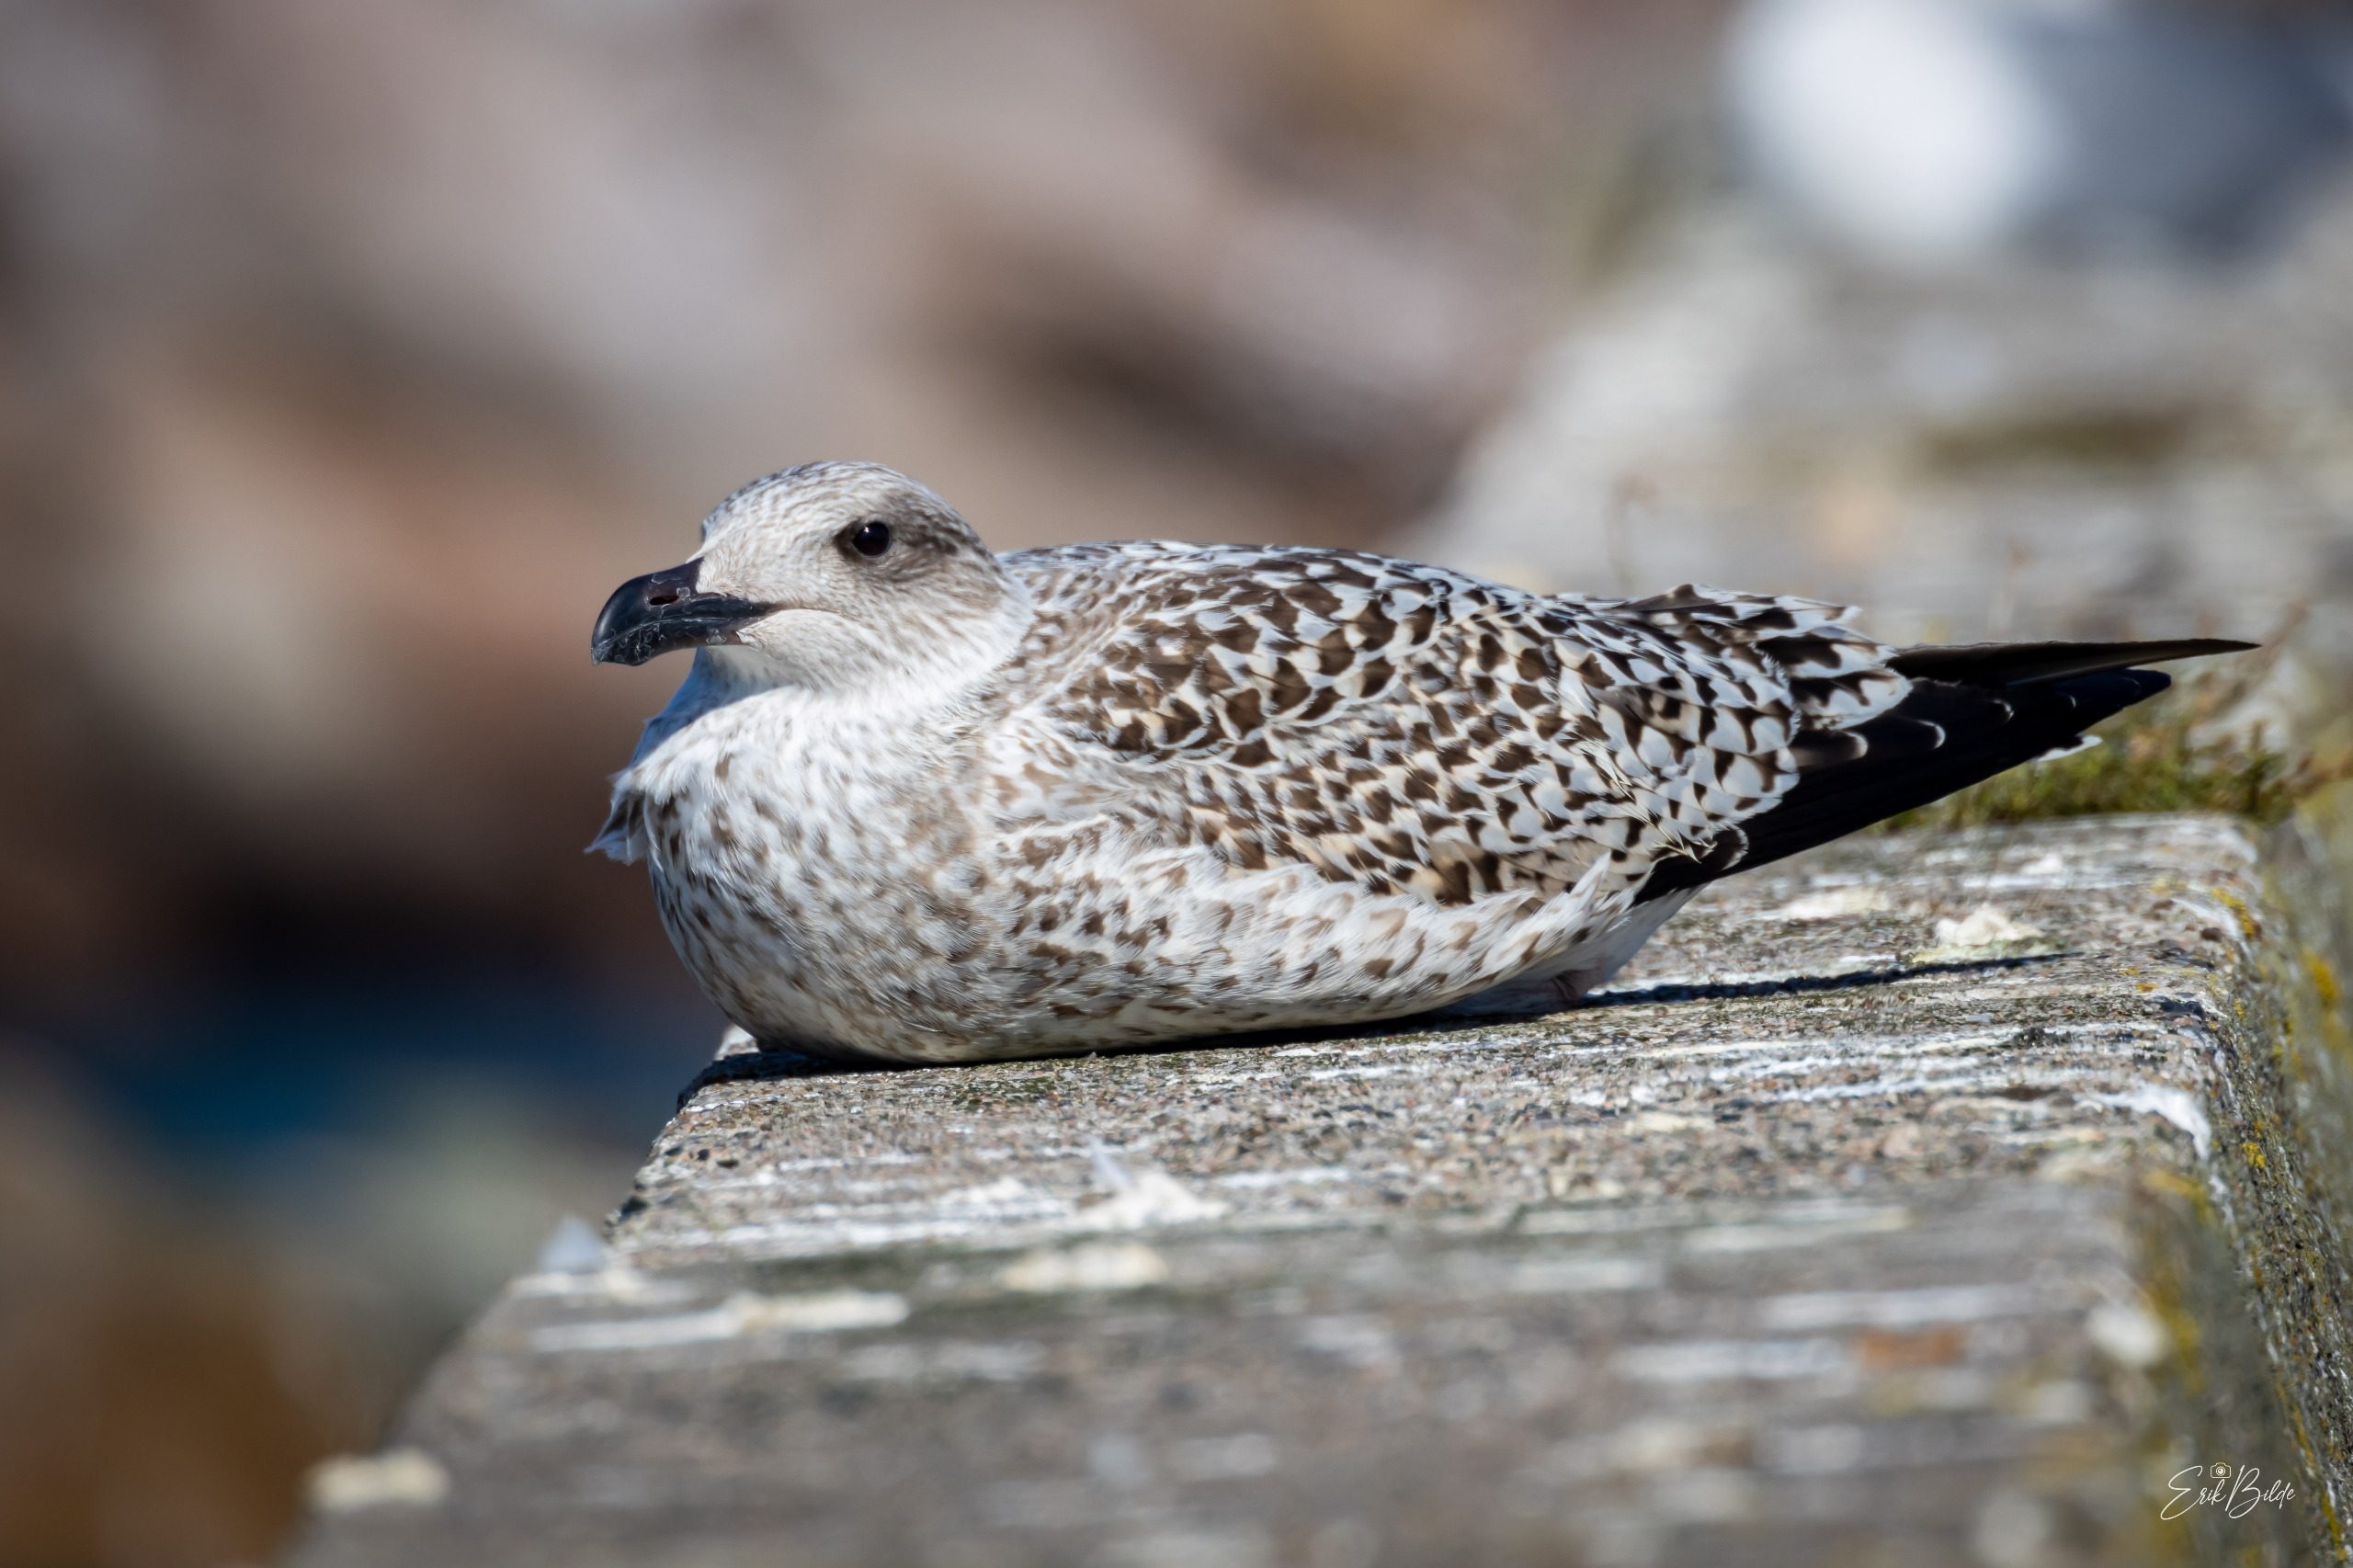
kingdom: Animalia
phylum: Chordata
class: Aves
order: Charadriiformes
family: Laridae
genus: Larus
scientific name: Larus marinus
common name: Svartbag
